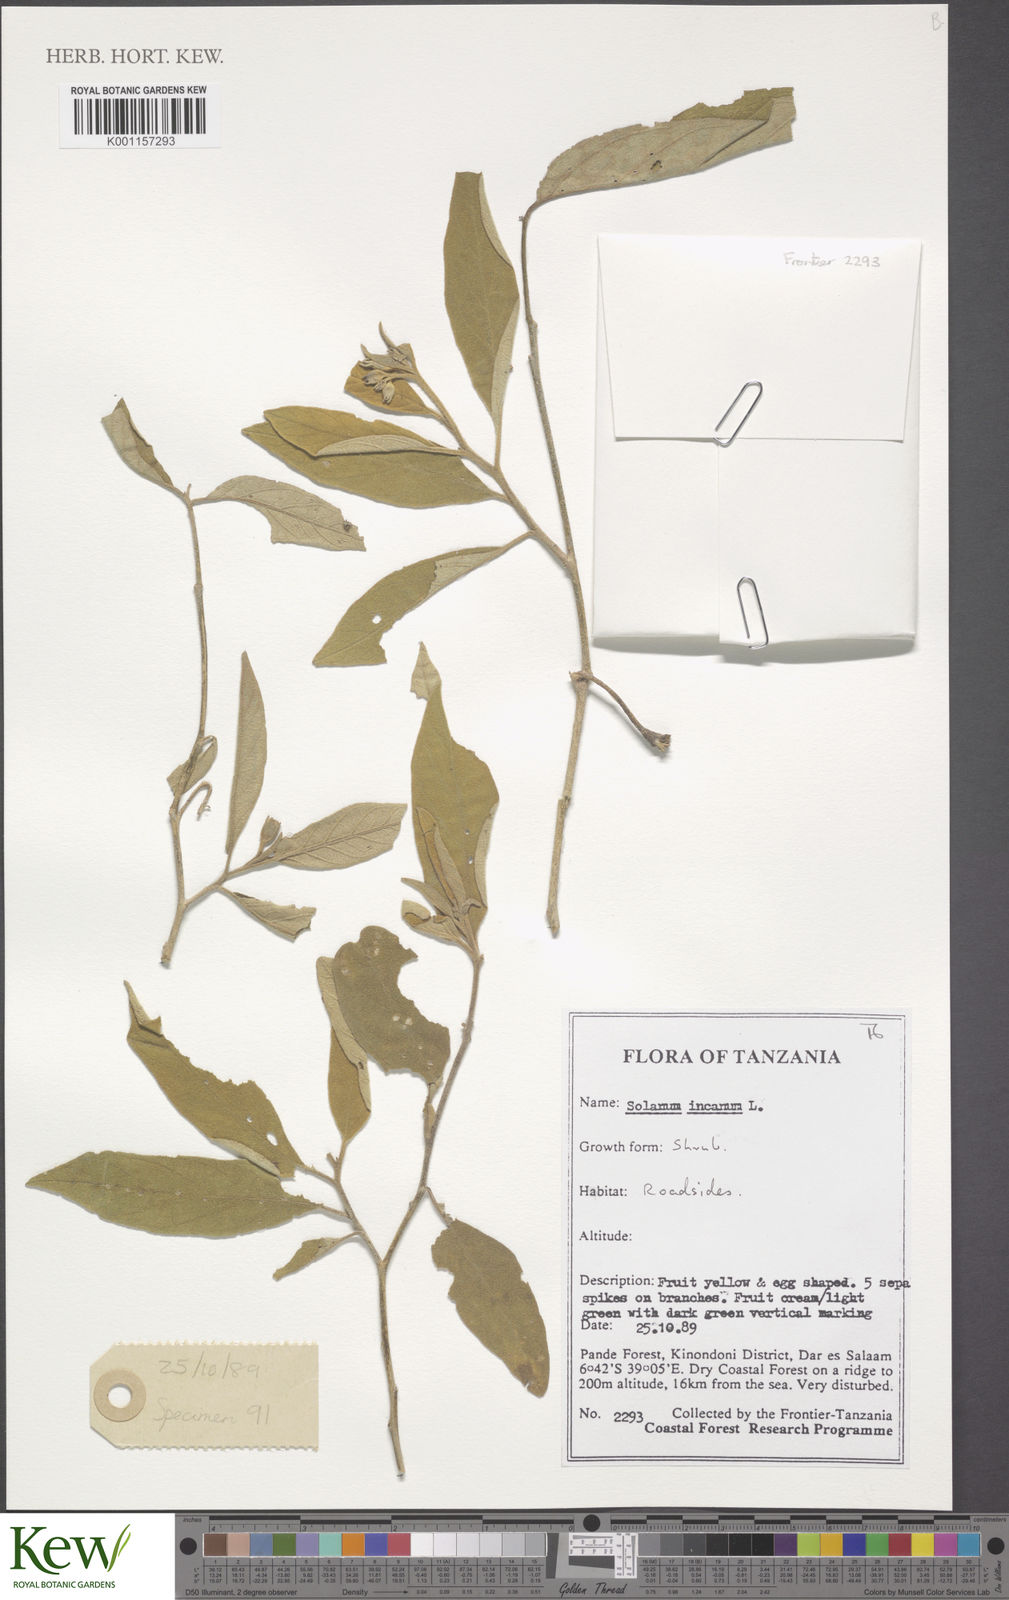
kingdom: Plantae
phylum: Tracheophyta
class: Magnoliopsida
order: Solanales
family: Solanaceae
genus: Solanum
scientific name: Solanum campylacanthum
